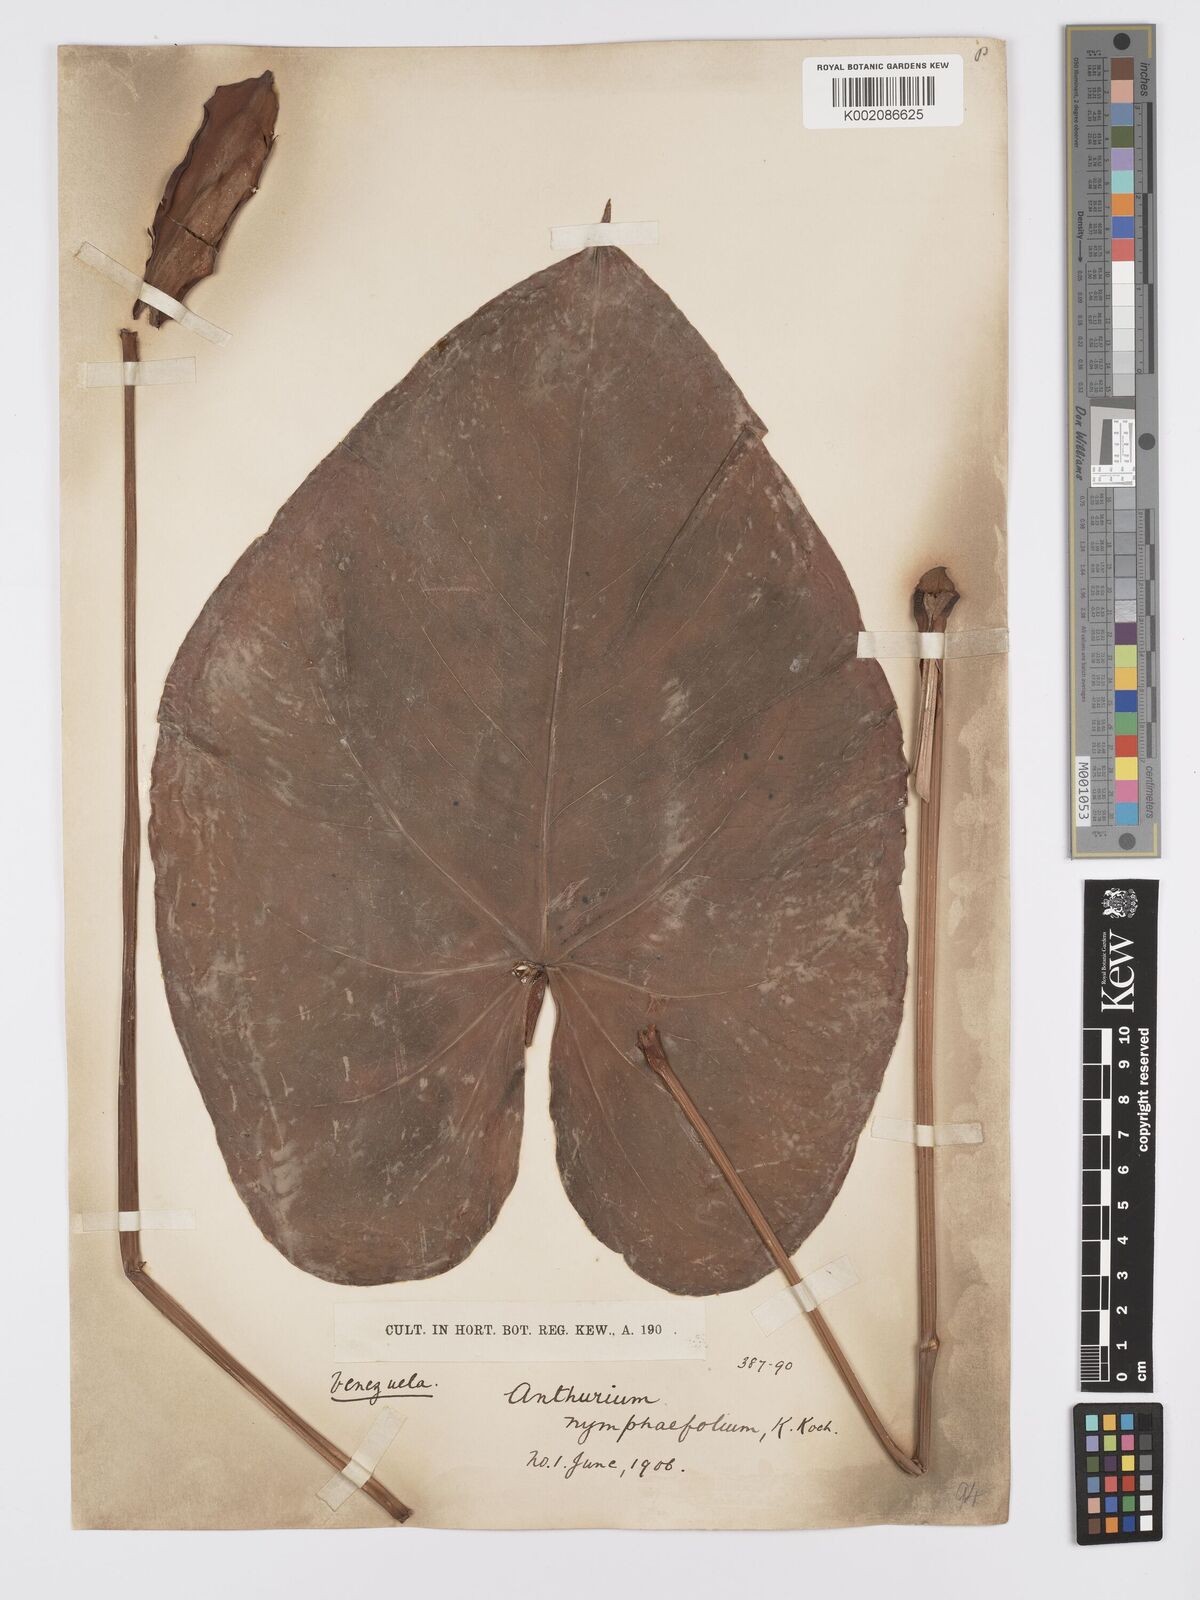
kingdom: Plantae
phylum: Tracheophyta
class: Liliopsida
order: Alismatales
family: Araceae
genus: Anthurium
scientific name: Anthurium nymphaeifolium
